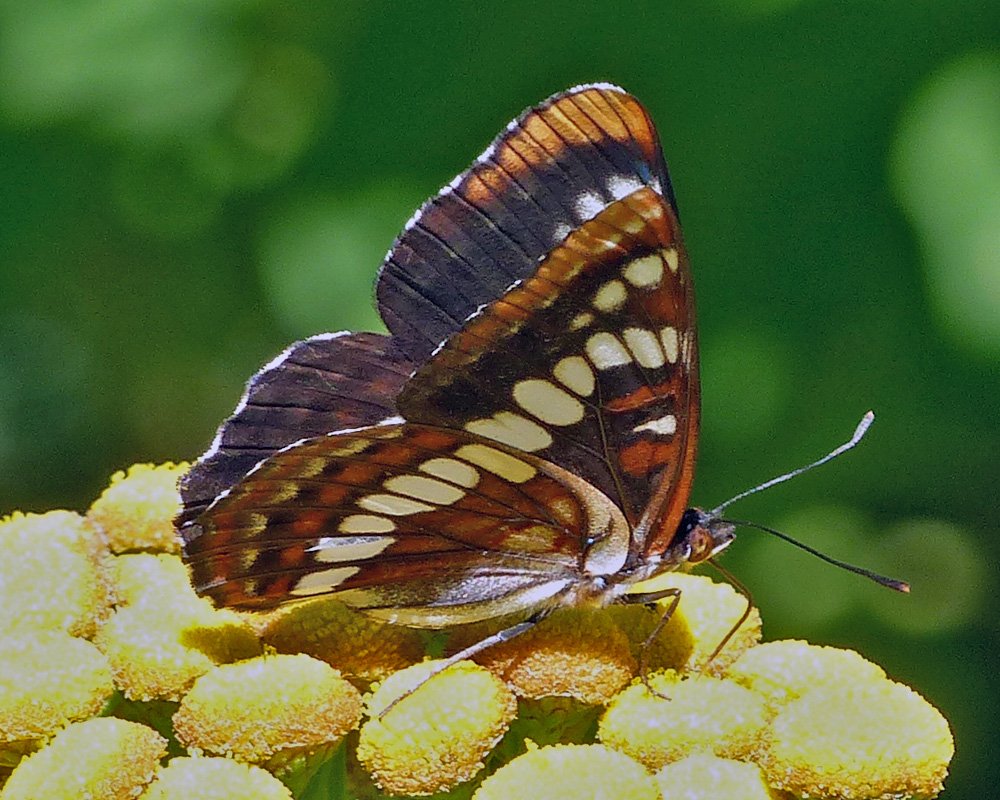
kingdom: Animalia
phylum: Arthropoda
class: Insecta
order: Lepidoptera
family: Nymphalidae
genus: Limenitis
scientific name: Limenitis lorquini
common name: Lorquin's Admiral
